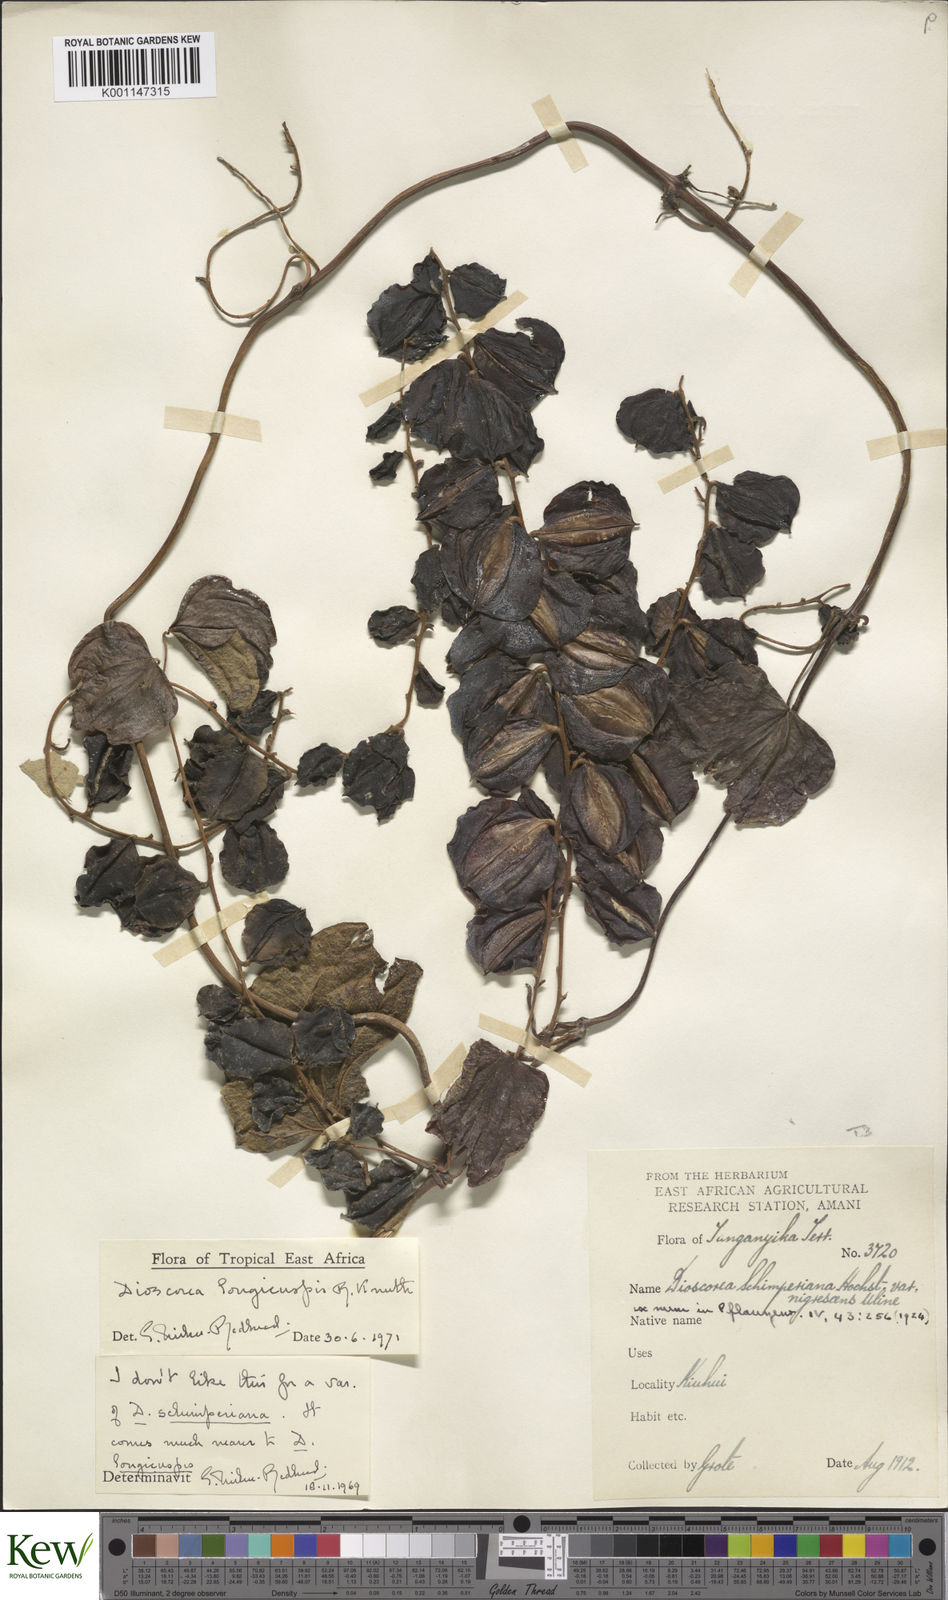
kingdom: Plantae
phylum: Tracheophyta
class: Liliopsida
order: Dioscoreales
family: Dioscoreaceae
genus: Dioscorea
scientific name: Dioscorea longicuspis
